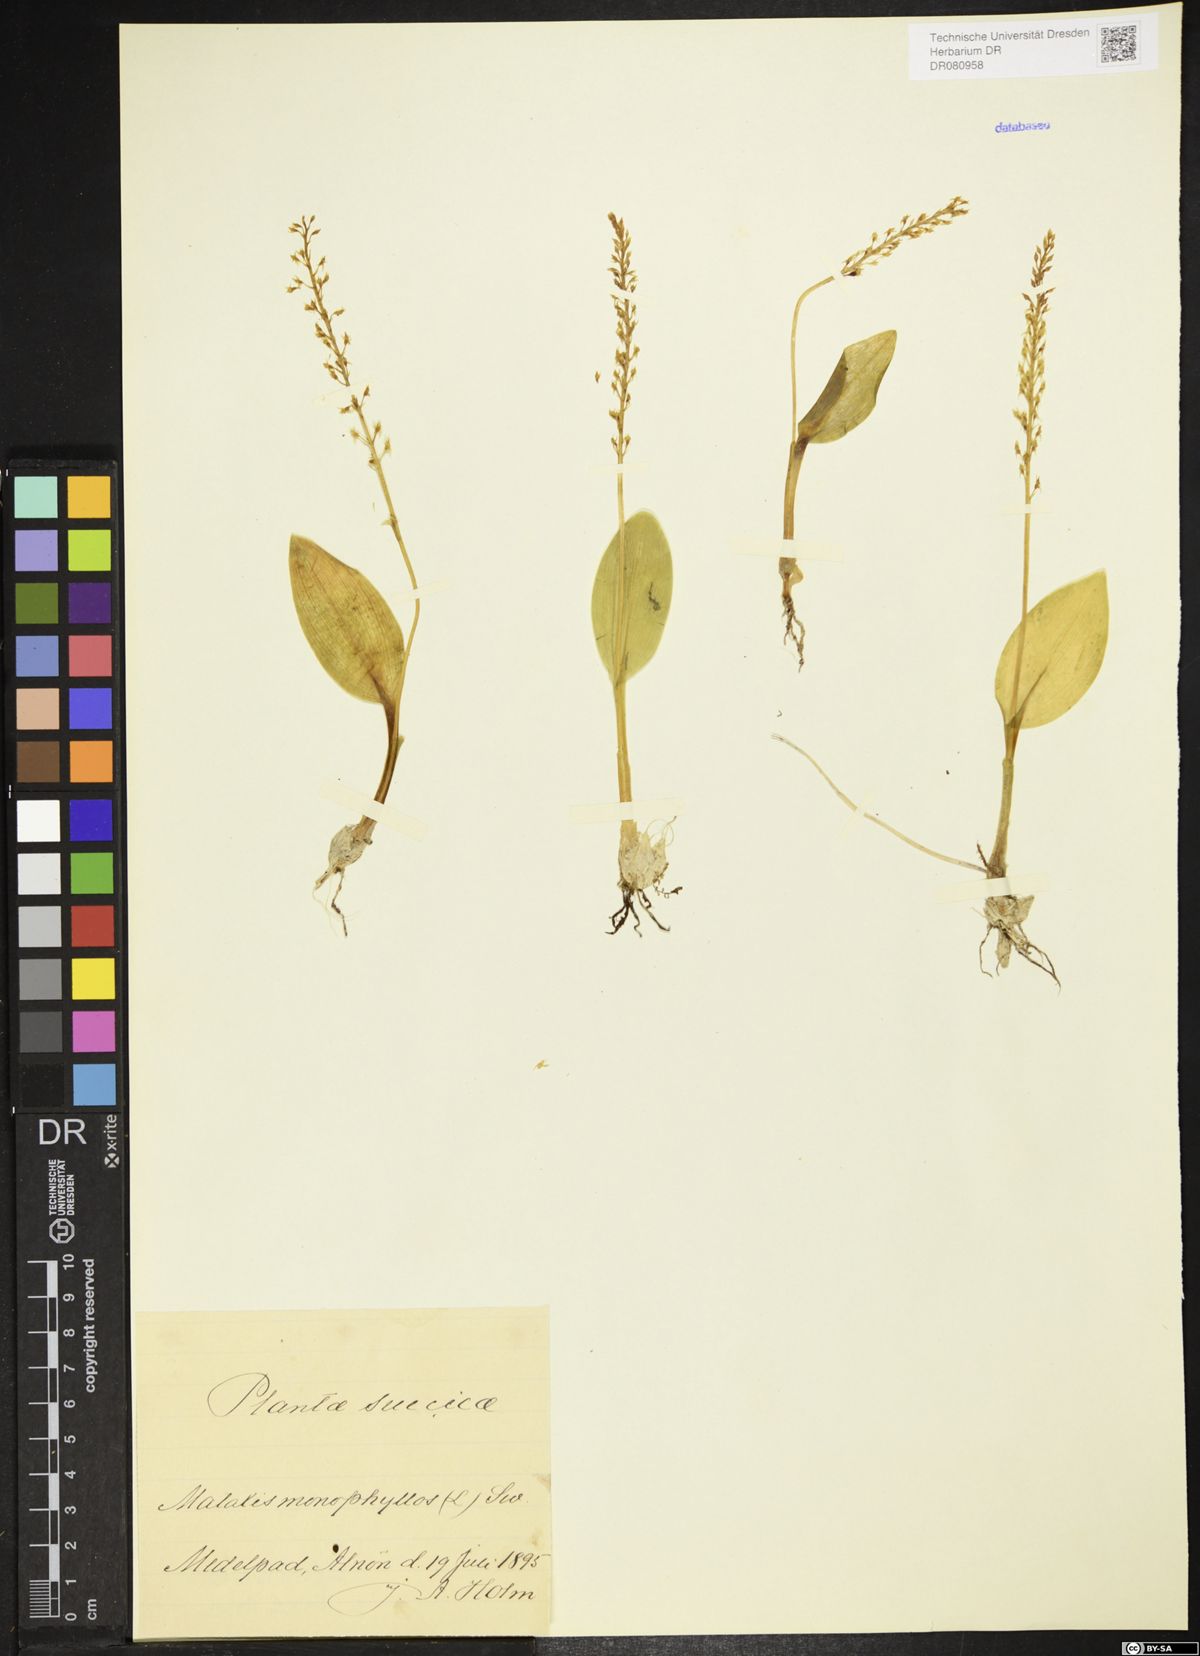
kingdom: Plantae
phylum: Tracheophyta
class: Liliopsida
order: Asparagales
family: Orchidaceae
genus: Malaxis
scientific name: Malaxis monophyllos
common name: White adder's-mouth
